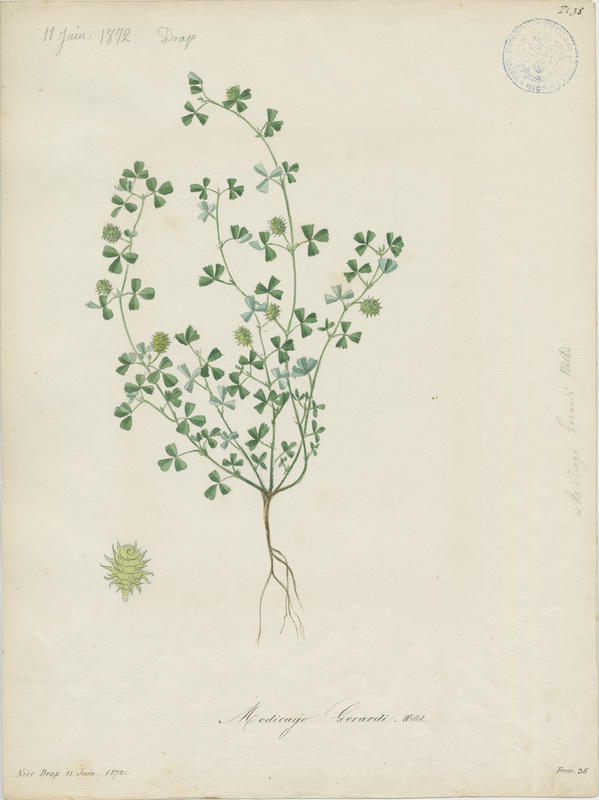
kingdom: Plantae
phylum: Tracheophyta
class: Magnoliopsida
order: Fabales
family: Fabaceae
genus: Medicago
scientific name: Medicago rigidula
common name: Tifton medic
